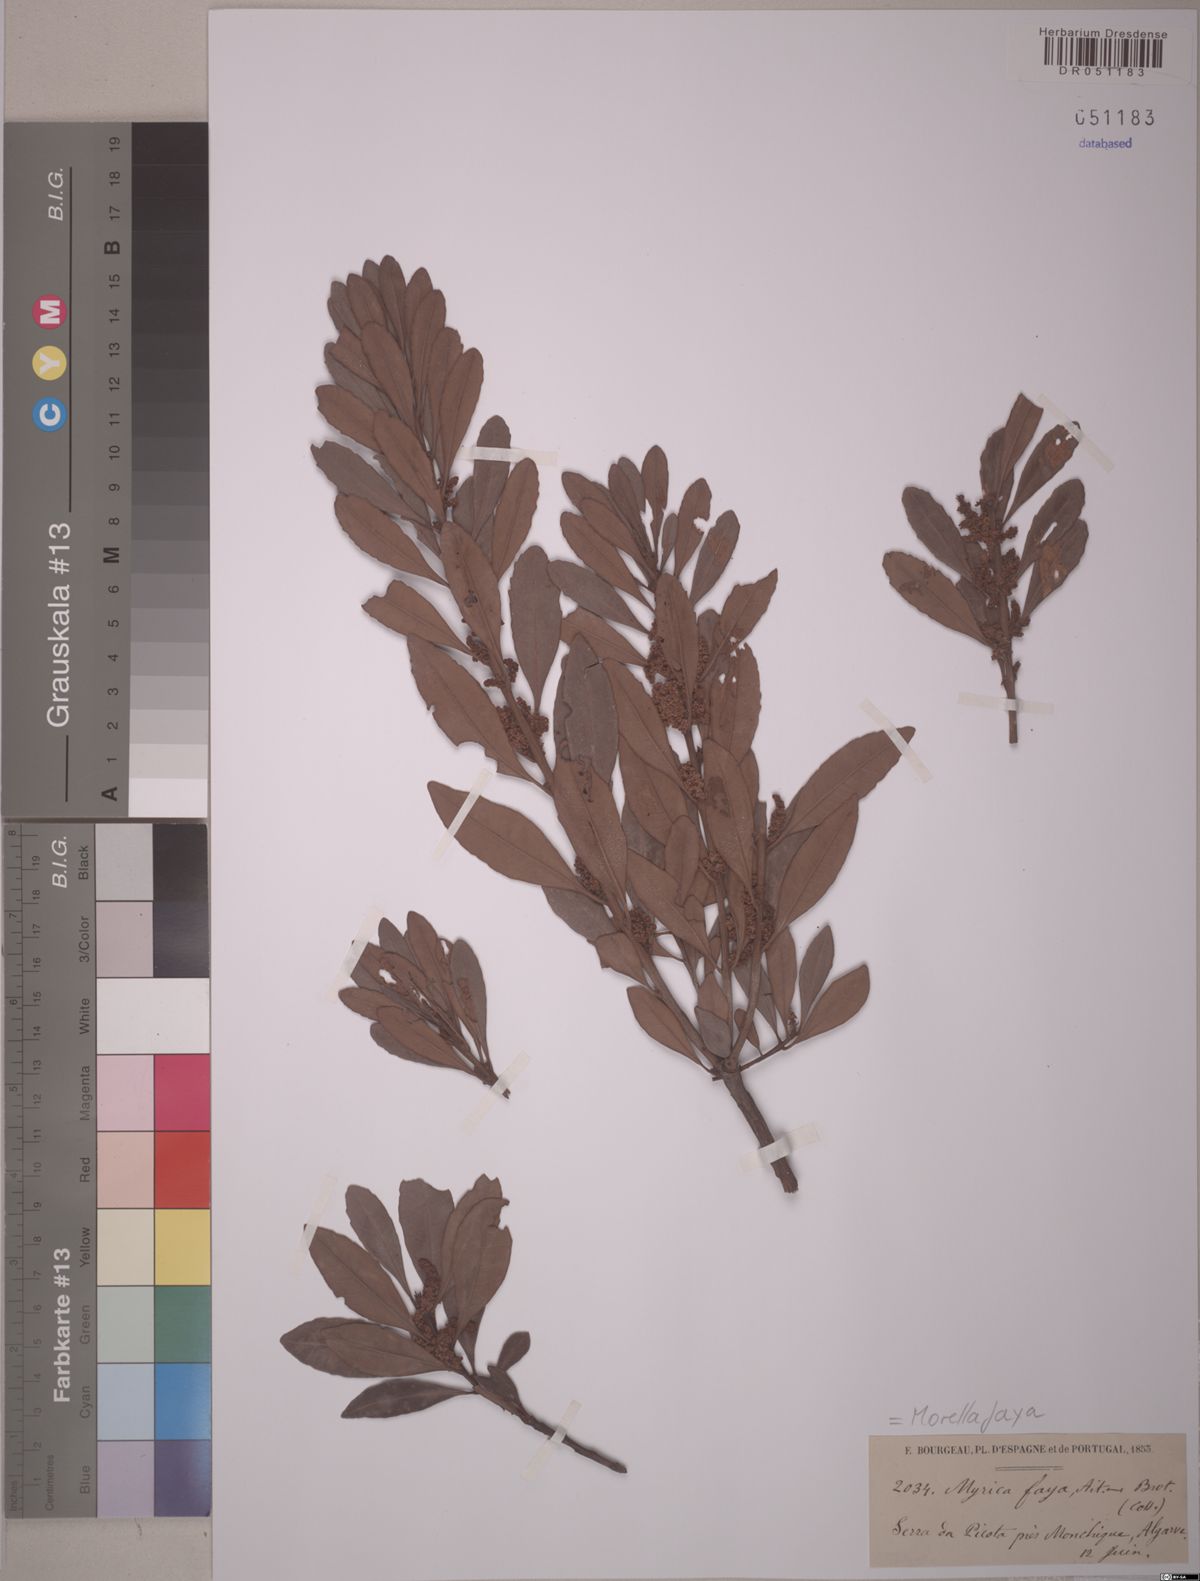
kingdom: Plantae
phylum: Tracheophyta
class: Magnoliopsida
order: Fagales
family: Myricaceae
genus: Morella
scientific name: Morella faya
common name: Firetree
